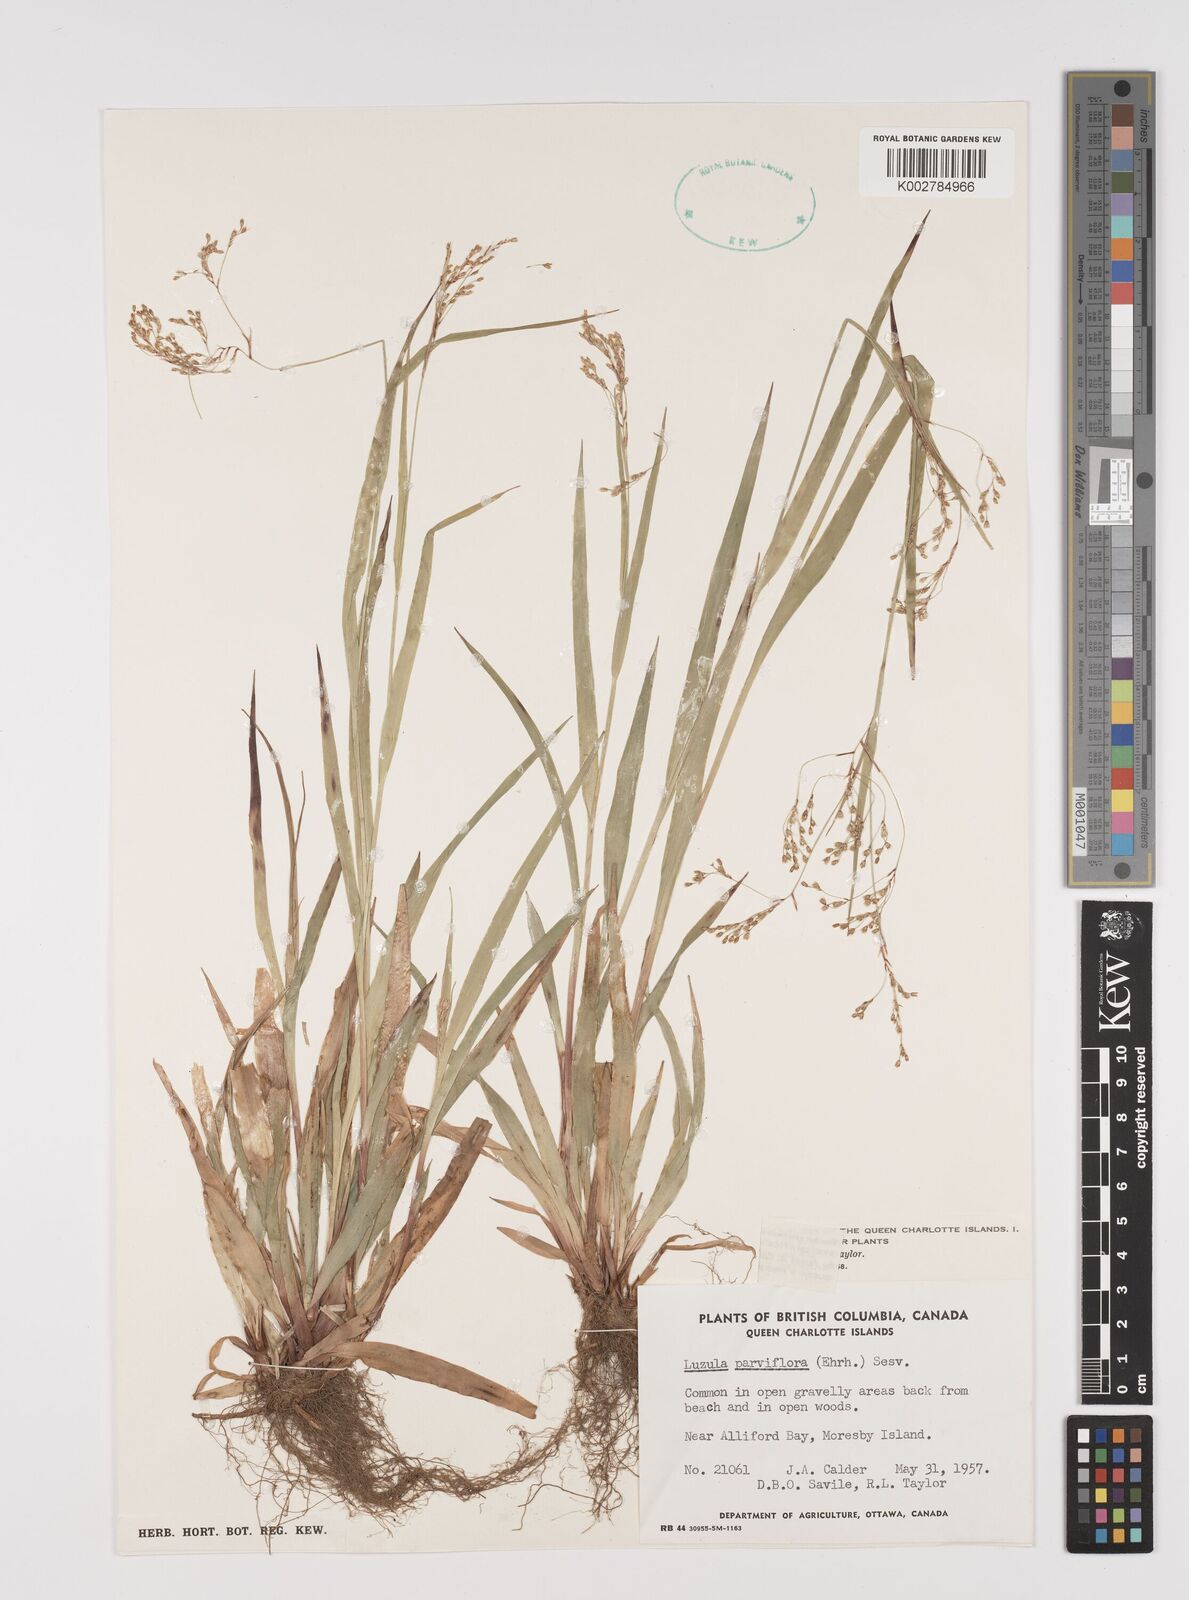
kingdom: Plantae
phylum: Tracheophyta
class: Liliopsida
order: Poales
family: Juncaceae
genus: Luzula
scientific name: Luzula parviflora
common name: Millet woodrush
